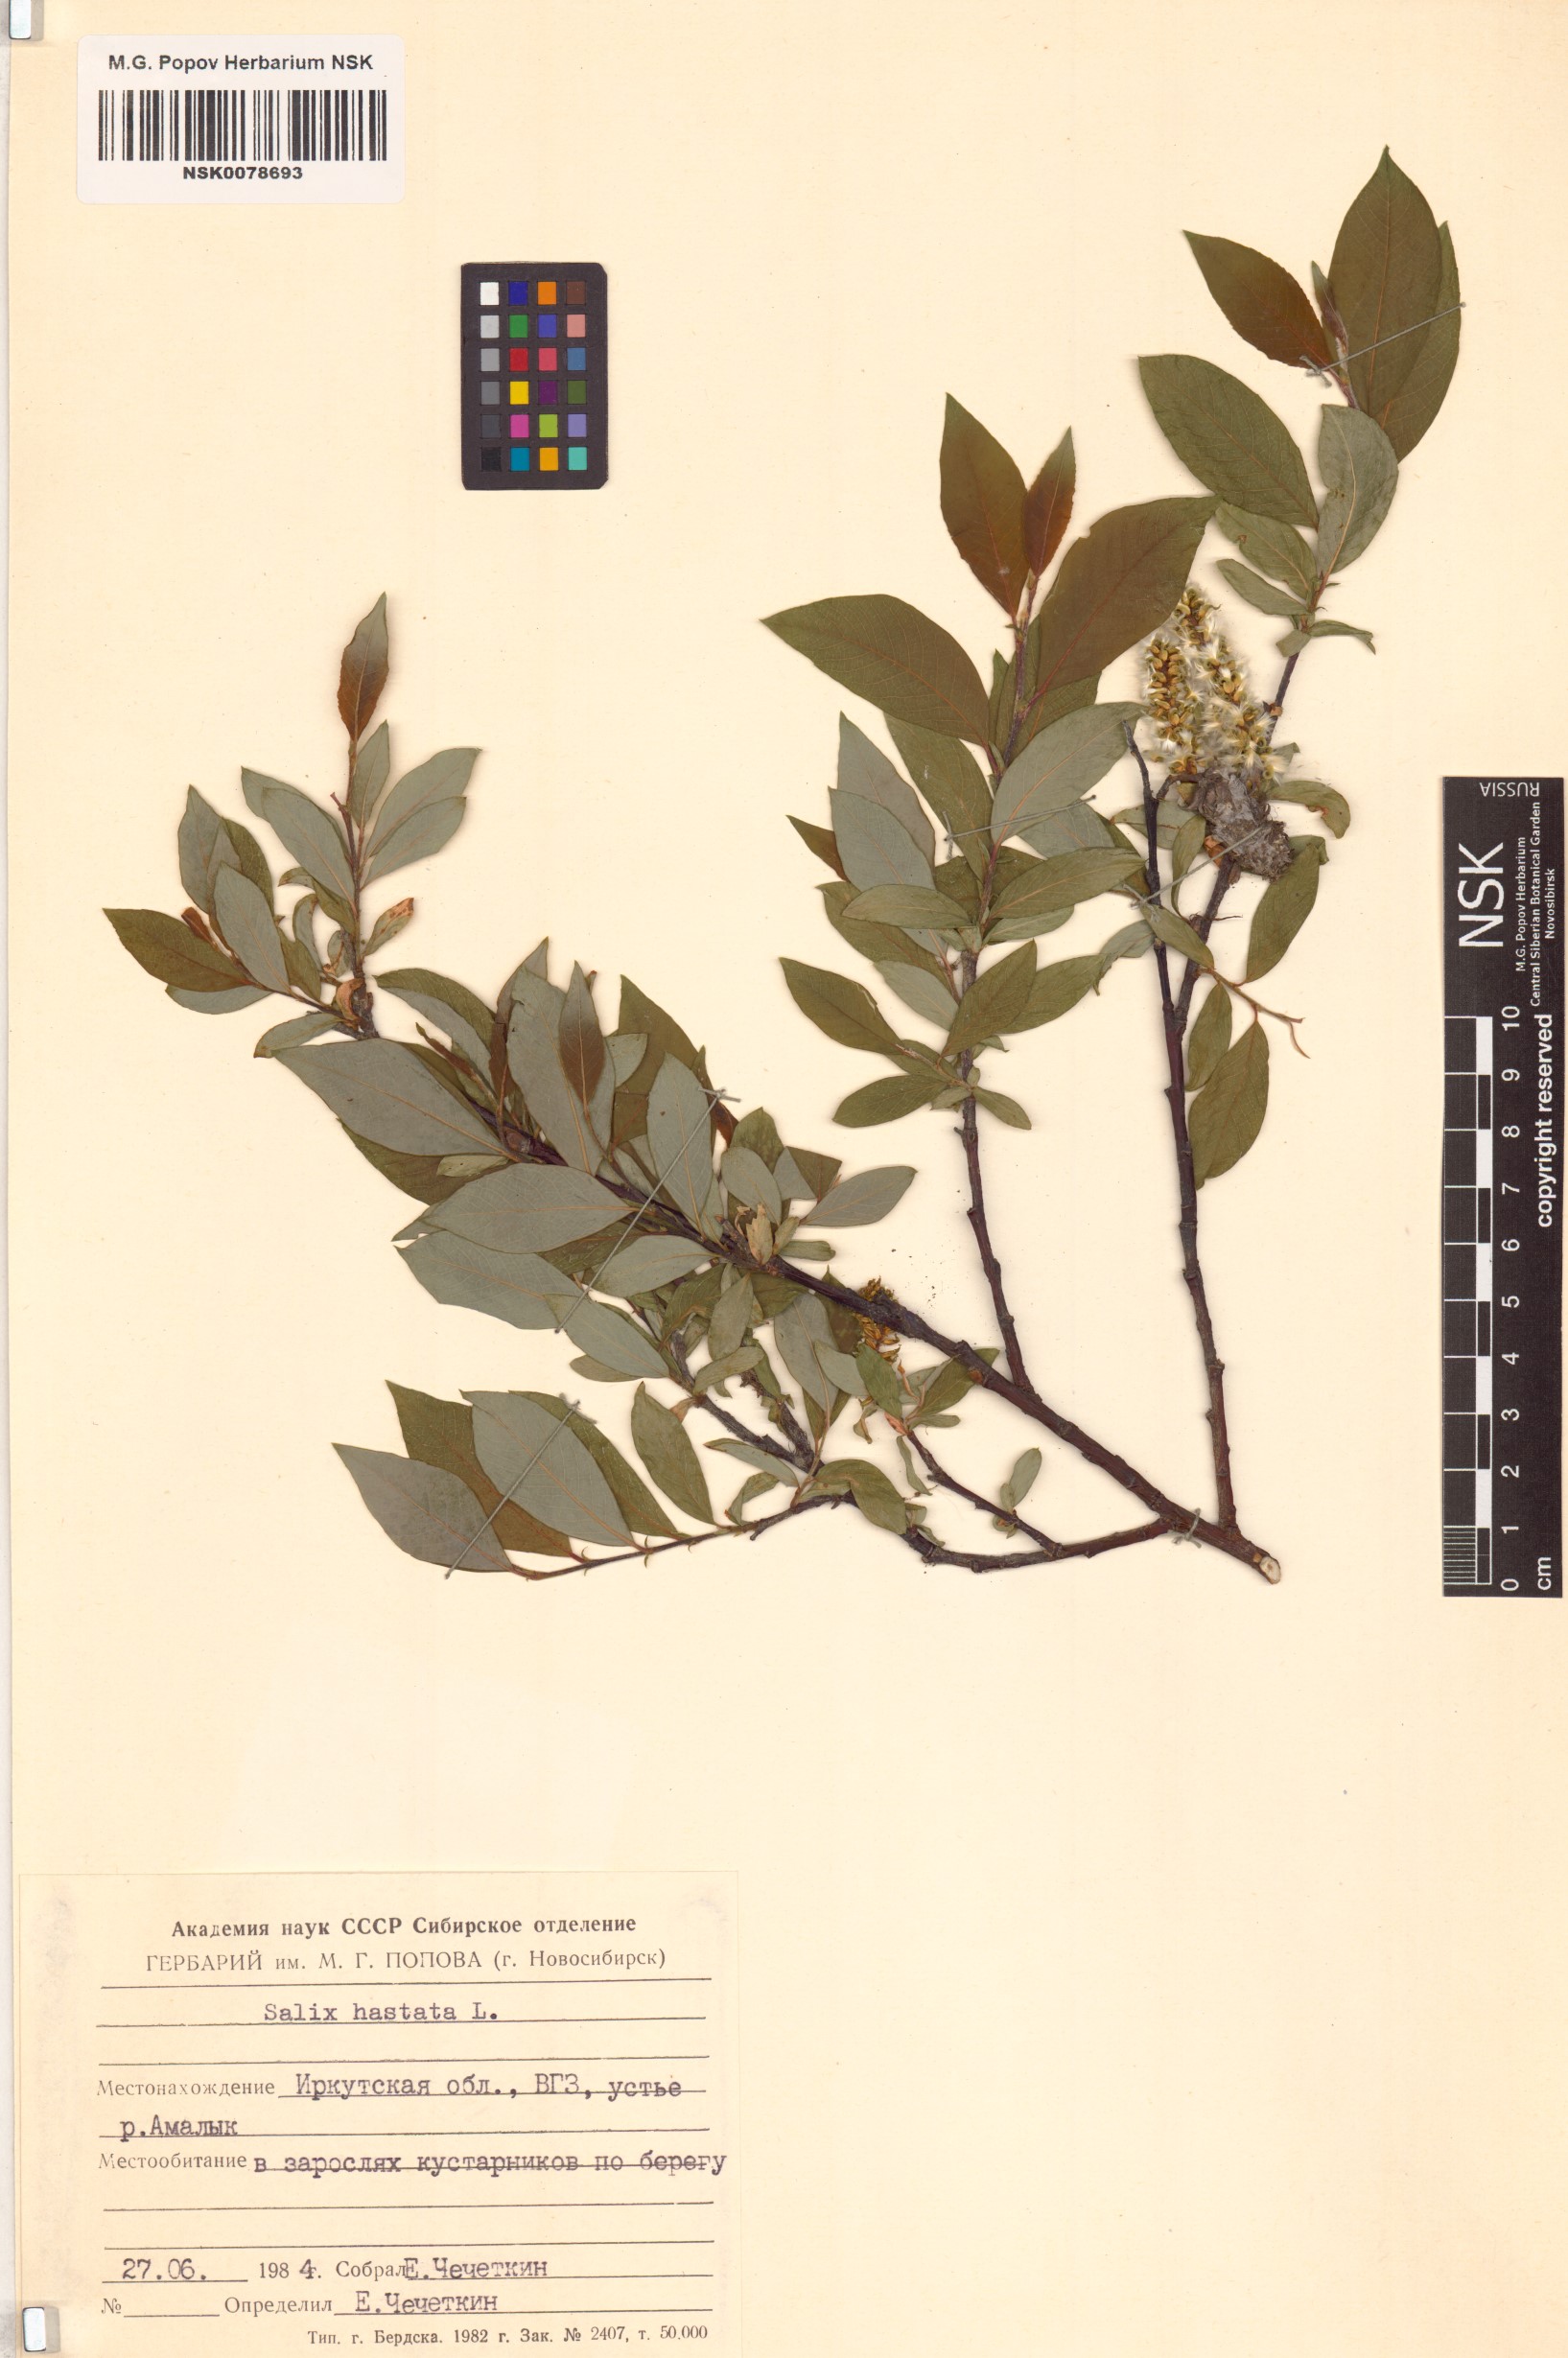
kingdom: Plantae
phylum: Tracheophyta
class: Magnoliopsida
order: Malpighiales
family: Salicaceae
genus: Salix
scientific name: Salix hastata
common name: Halberd willow
